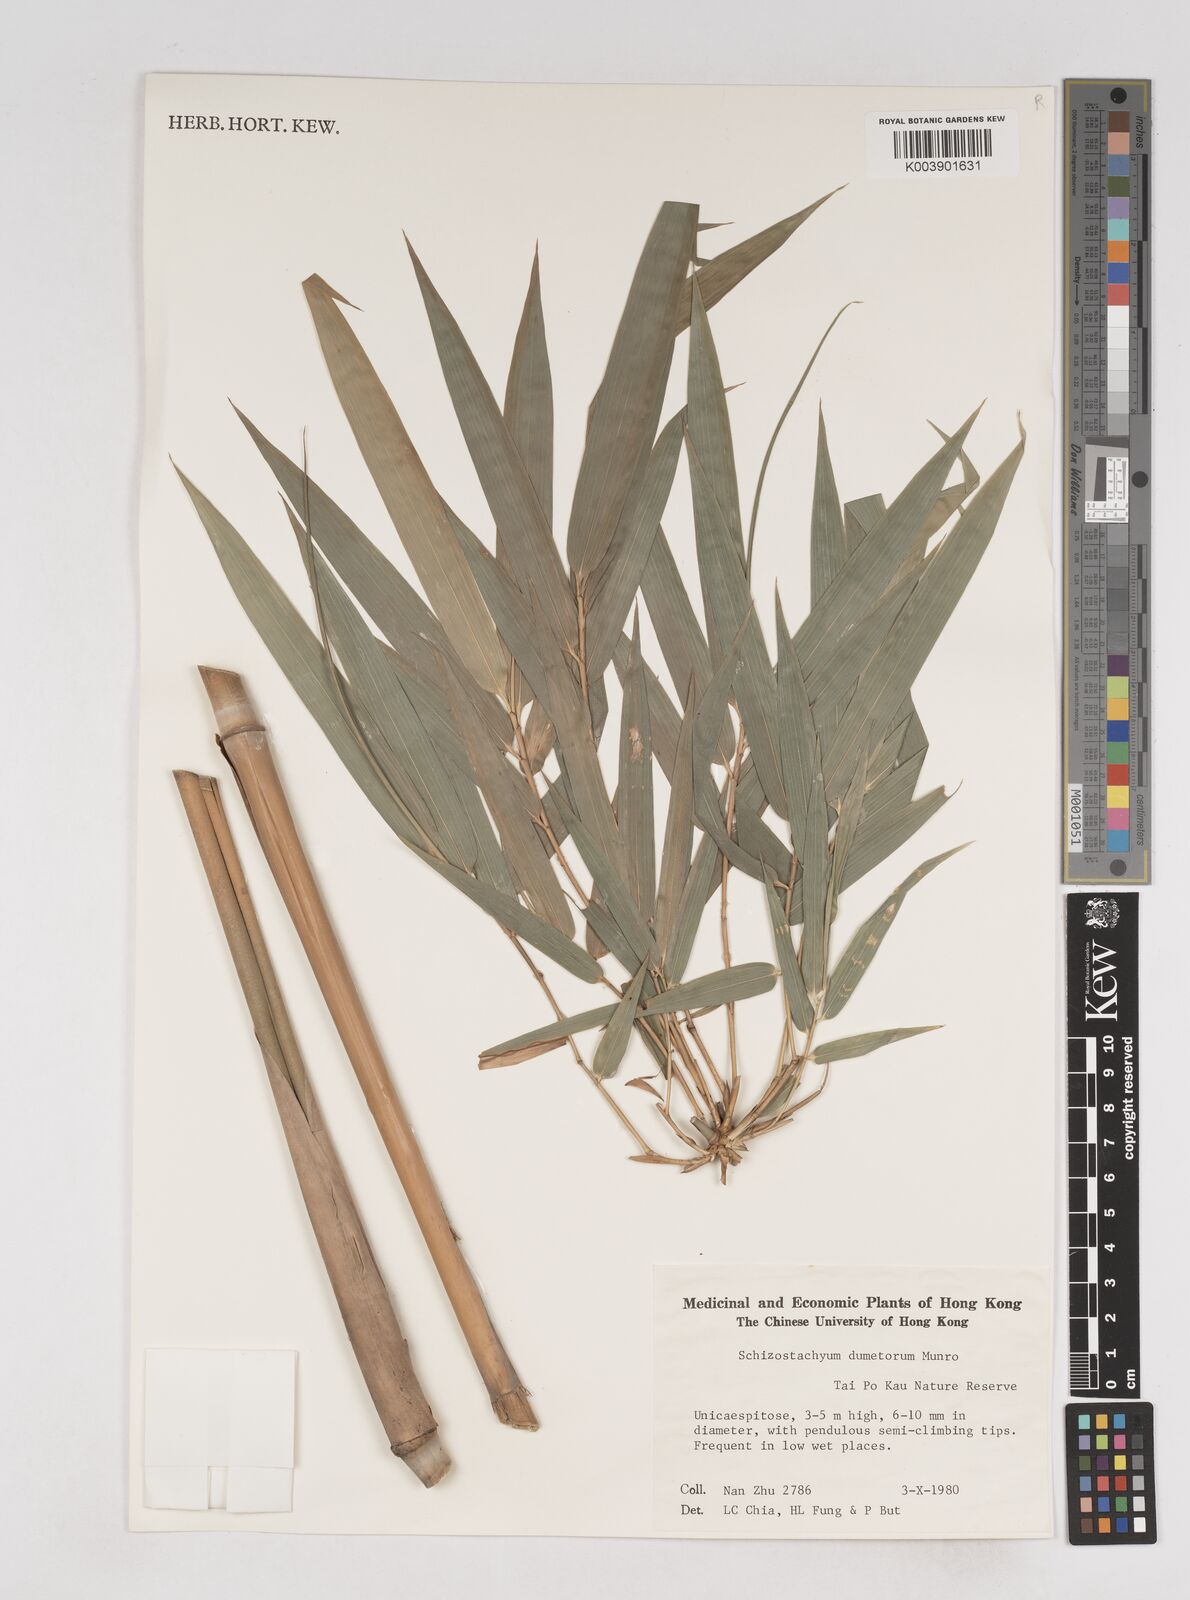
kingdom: Plantae
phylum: Tracheophyta
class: Liliopsida
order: Poales
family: Poaceae
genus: Schizostachyum
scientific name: Schizostachyum dumetorum
